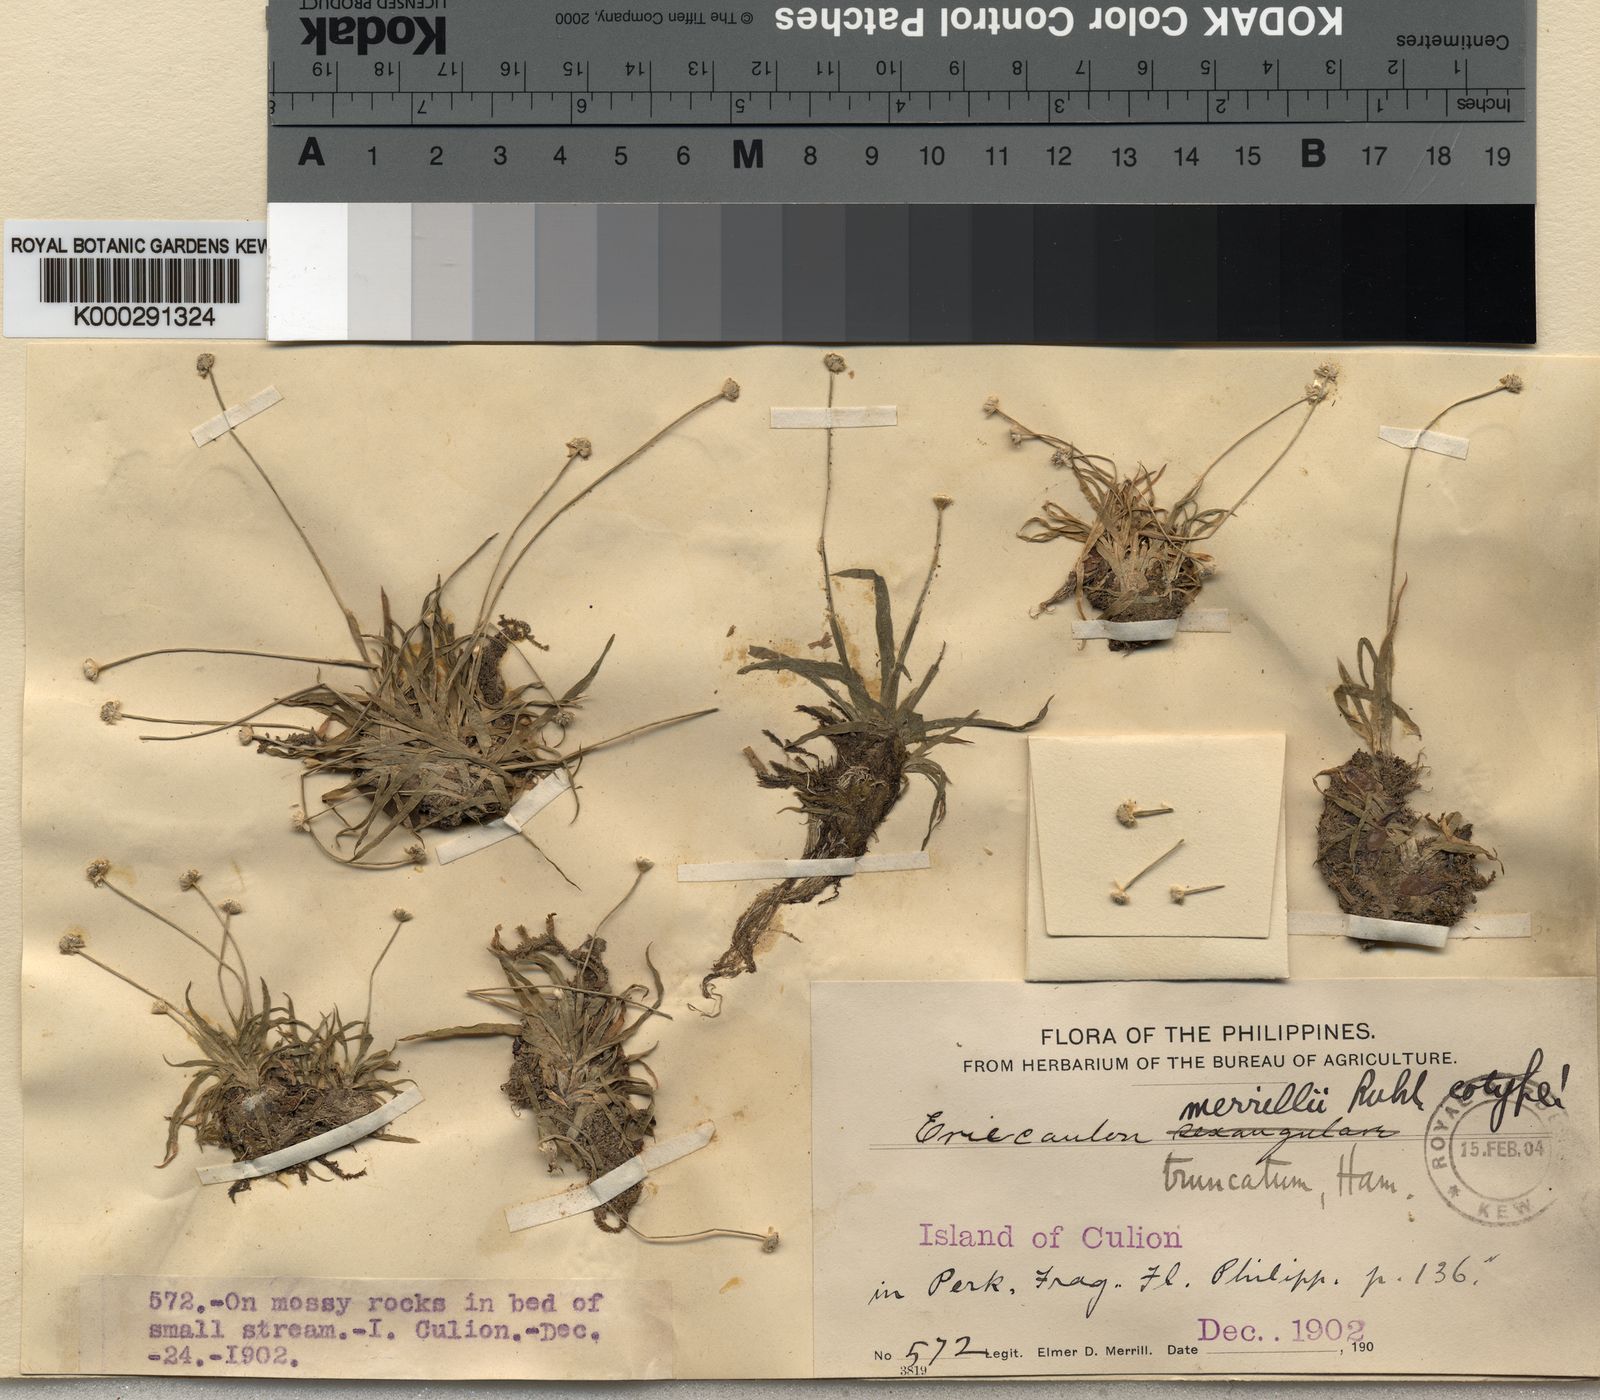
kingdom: Plantae
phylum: Tracheophyta
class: Liliopsida
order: Poales
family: Eriocaulaceae
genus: Eriocaulon
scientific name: Eriocaulon
